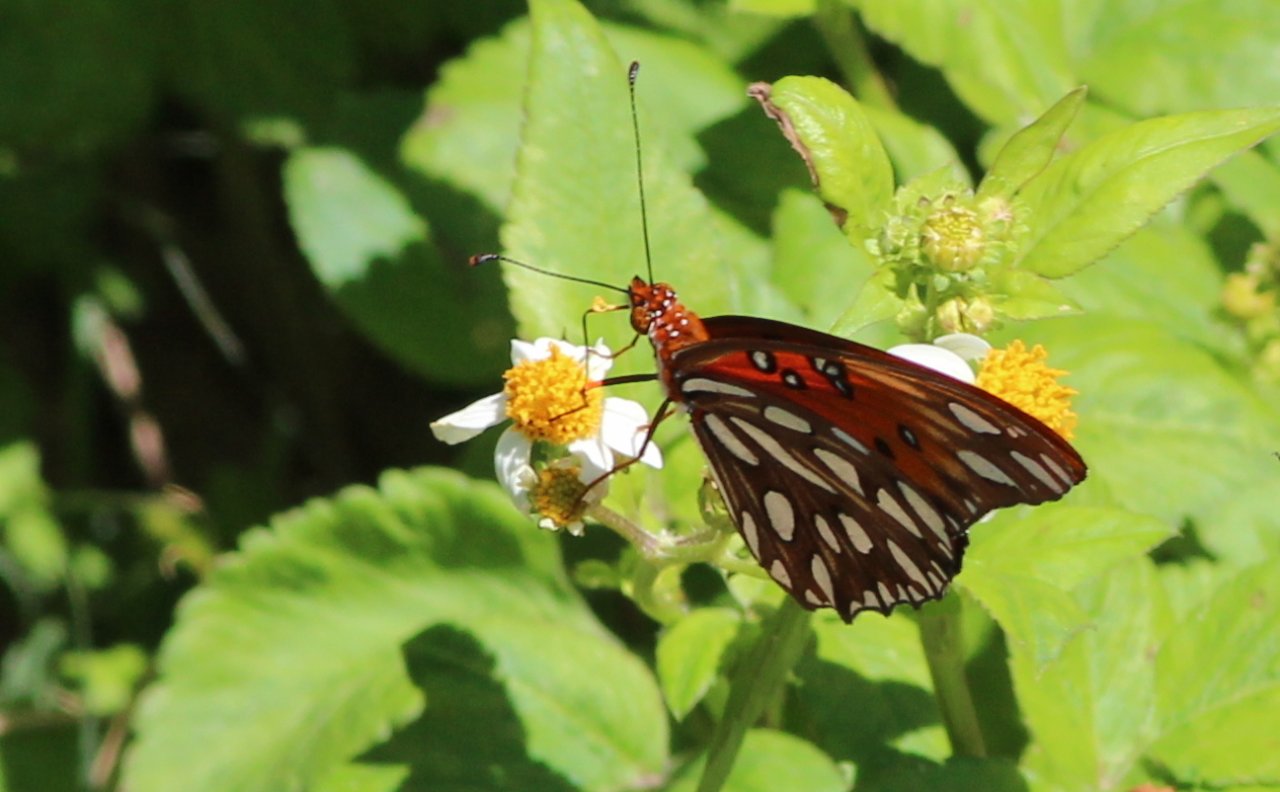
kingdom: Animalia
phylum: Arthropoda
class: Insecta
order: Lepidoptera
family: Nymphalidae
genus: Dione
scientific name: Dione vanillae
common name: Gulf Fritillary
